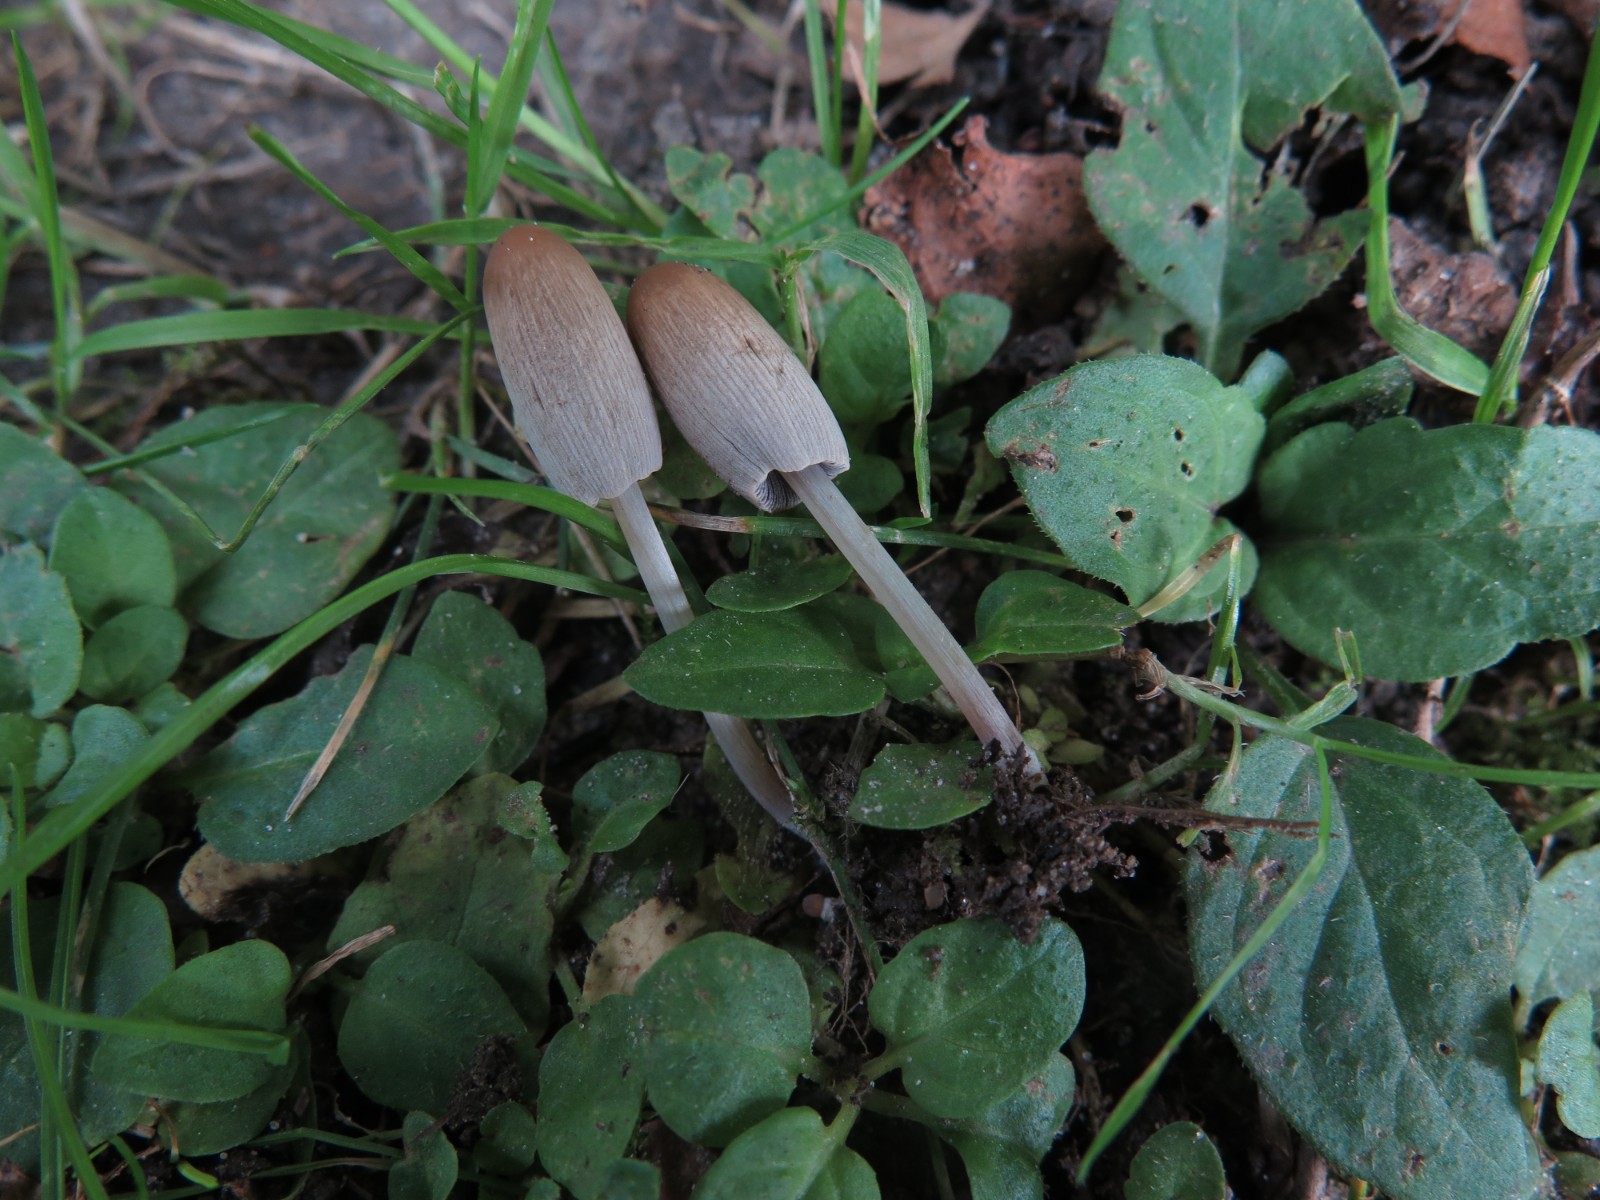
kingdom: Fungi
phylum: Basidiomycota
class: Agaricomycetes
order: Agaricales
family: Psathyrellaceae
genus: Parasola
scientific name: Parasola
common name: hjulhat
